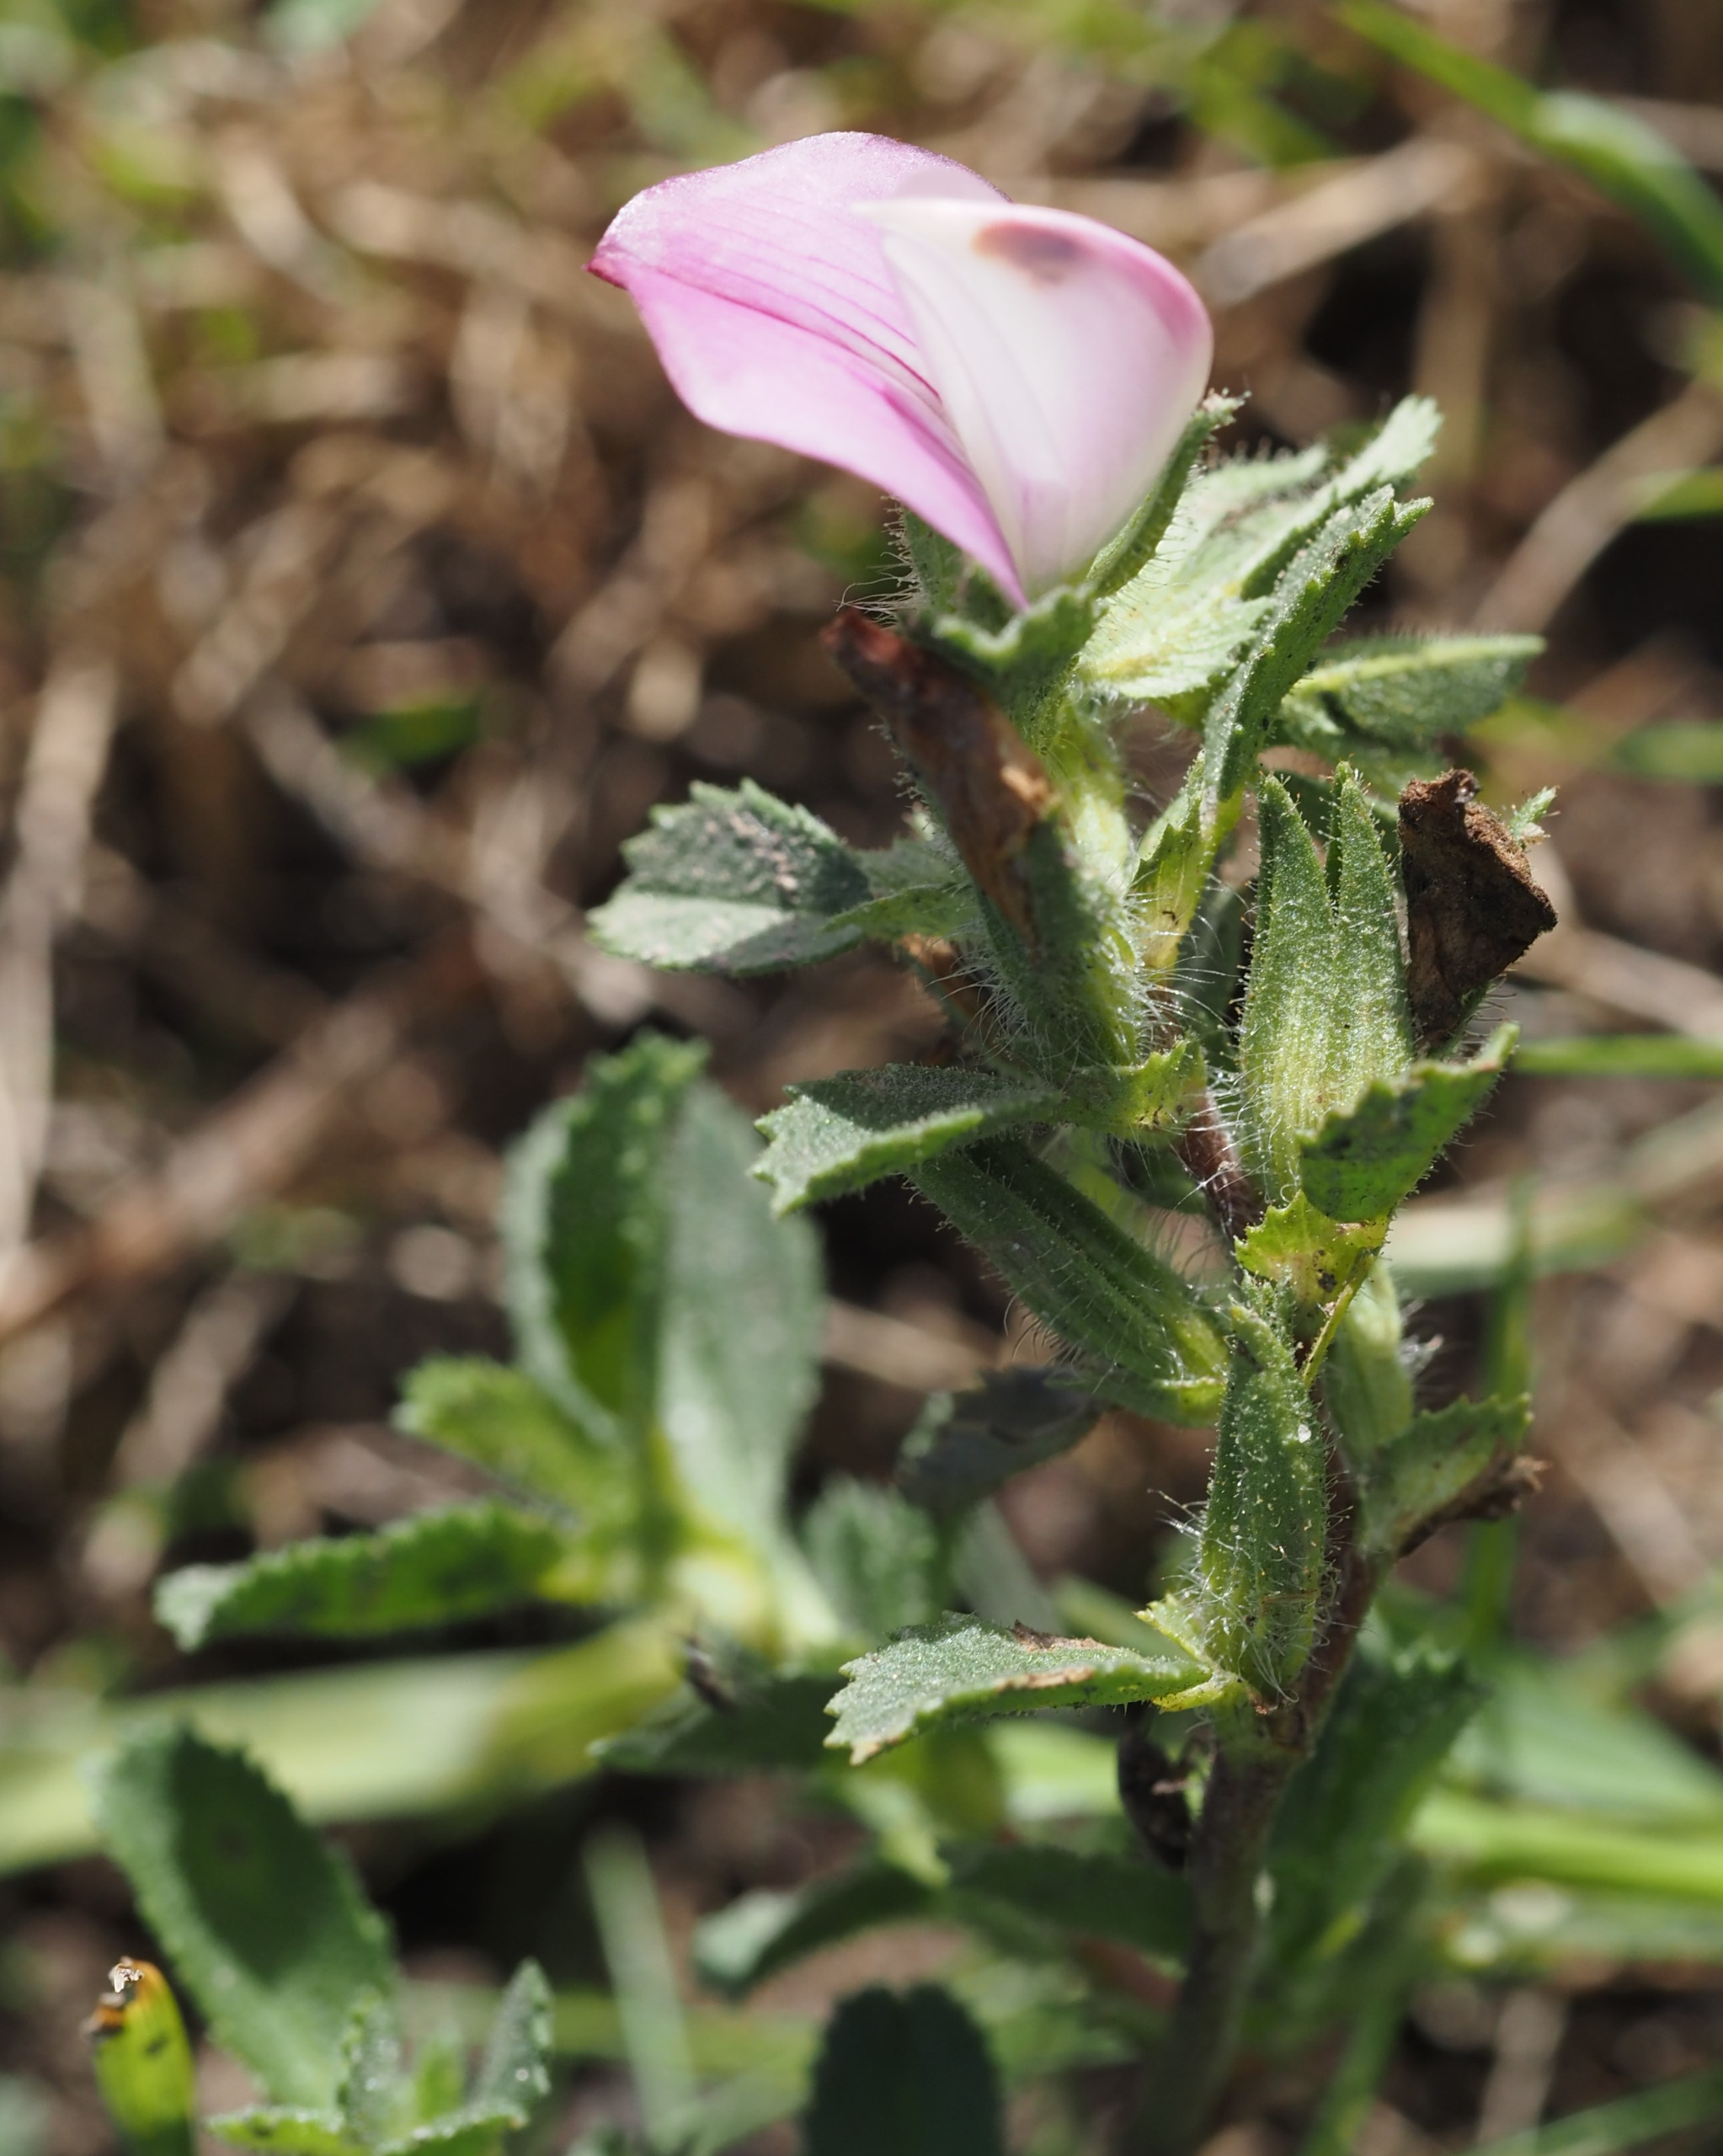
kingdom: Plantae
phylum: Tracheophyta
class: Magnoliopsida
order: Fabales
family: Fabaceae
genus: Ononis
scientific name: Ononis spinosa
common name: Mark-krageklo
